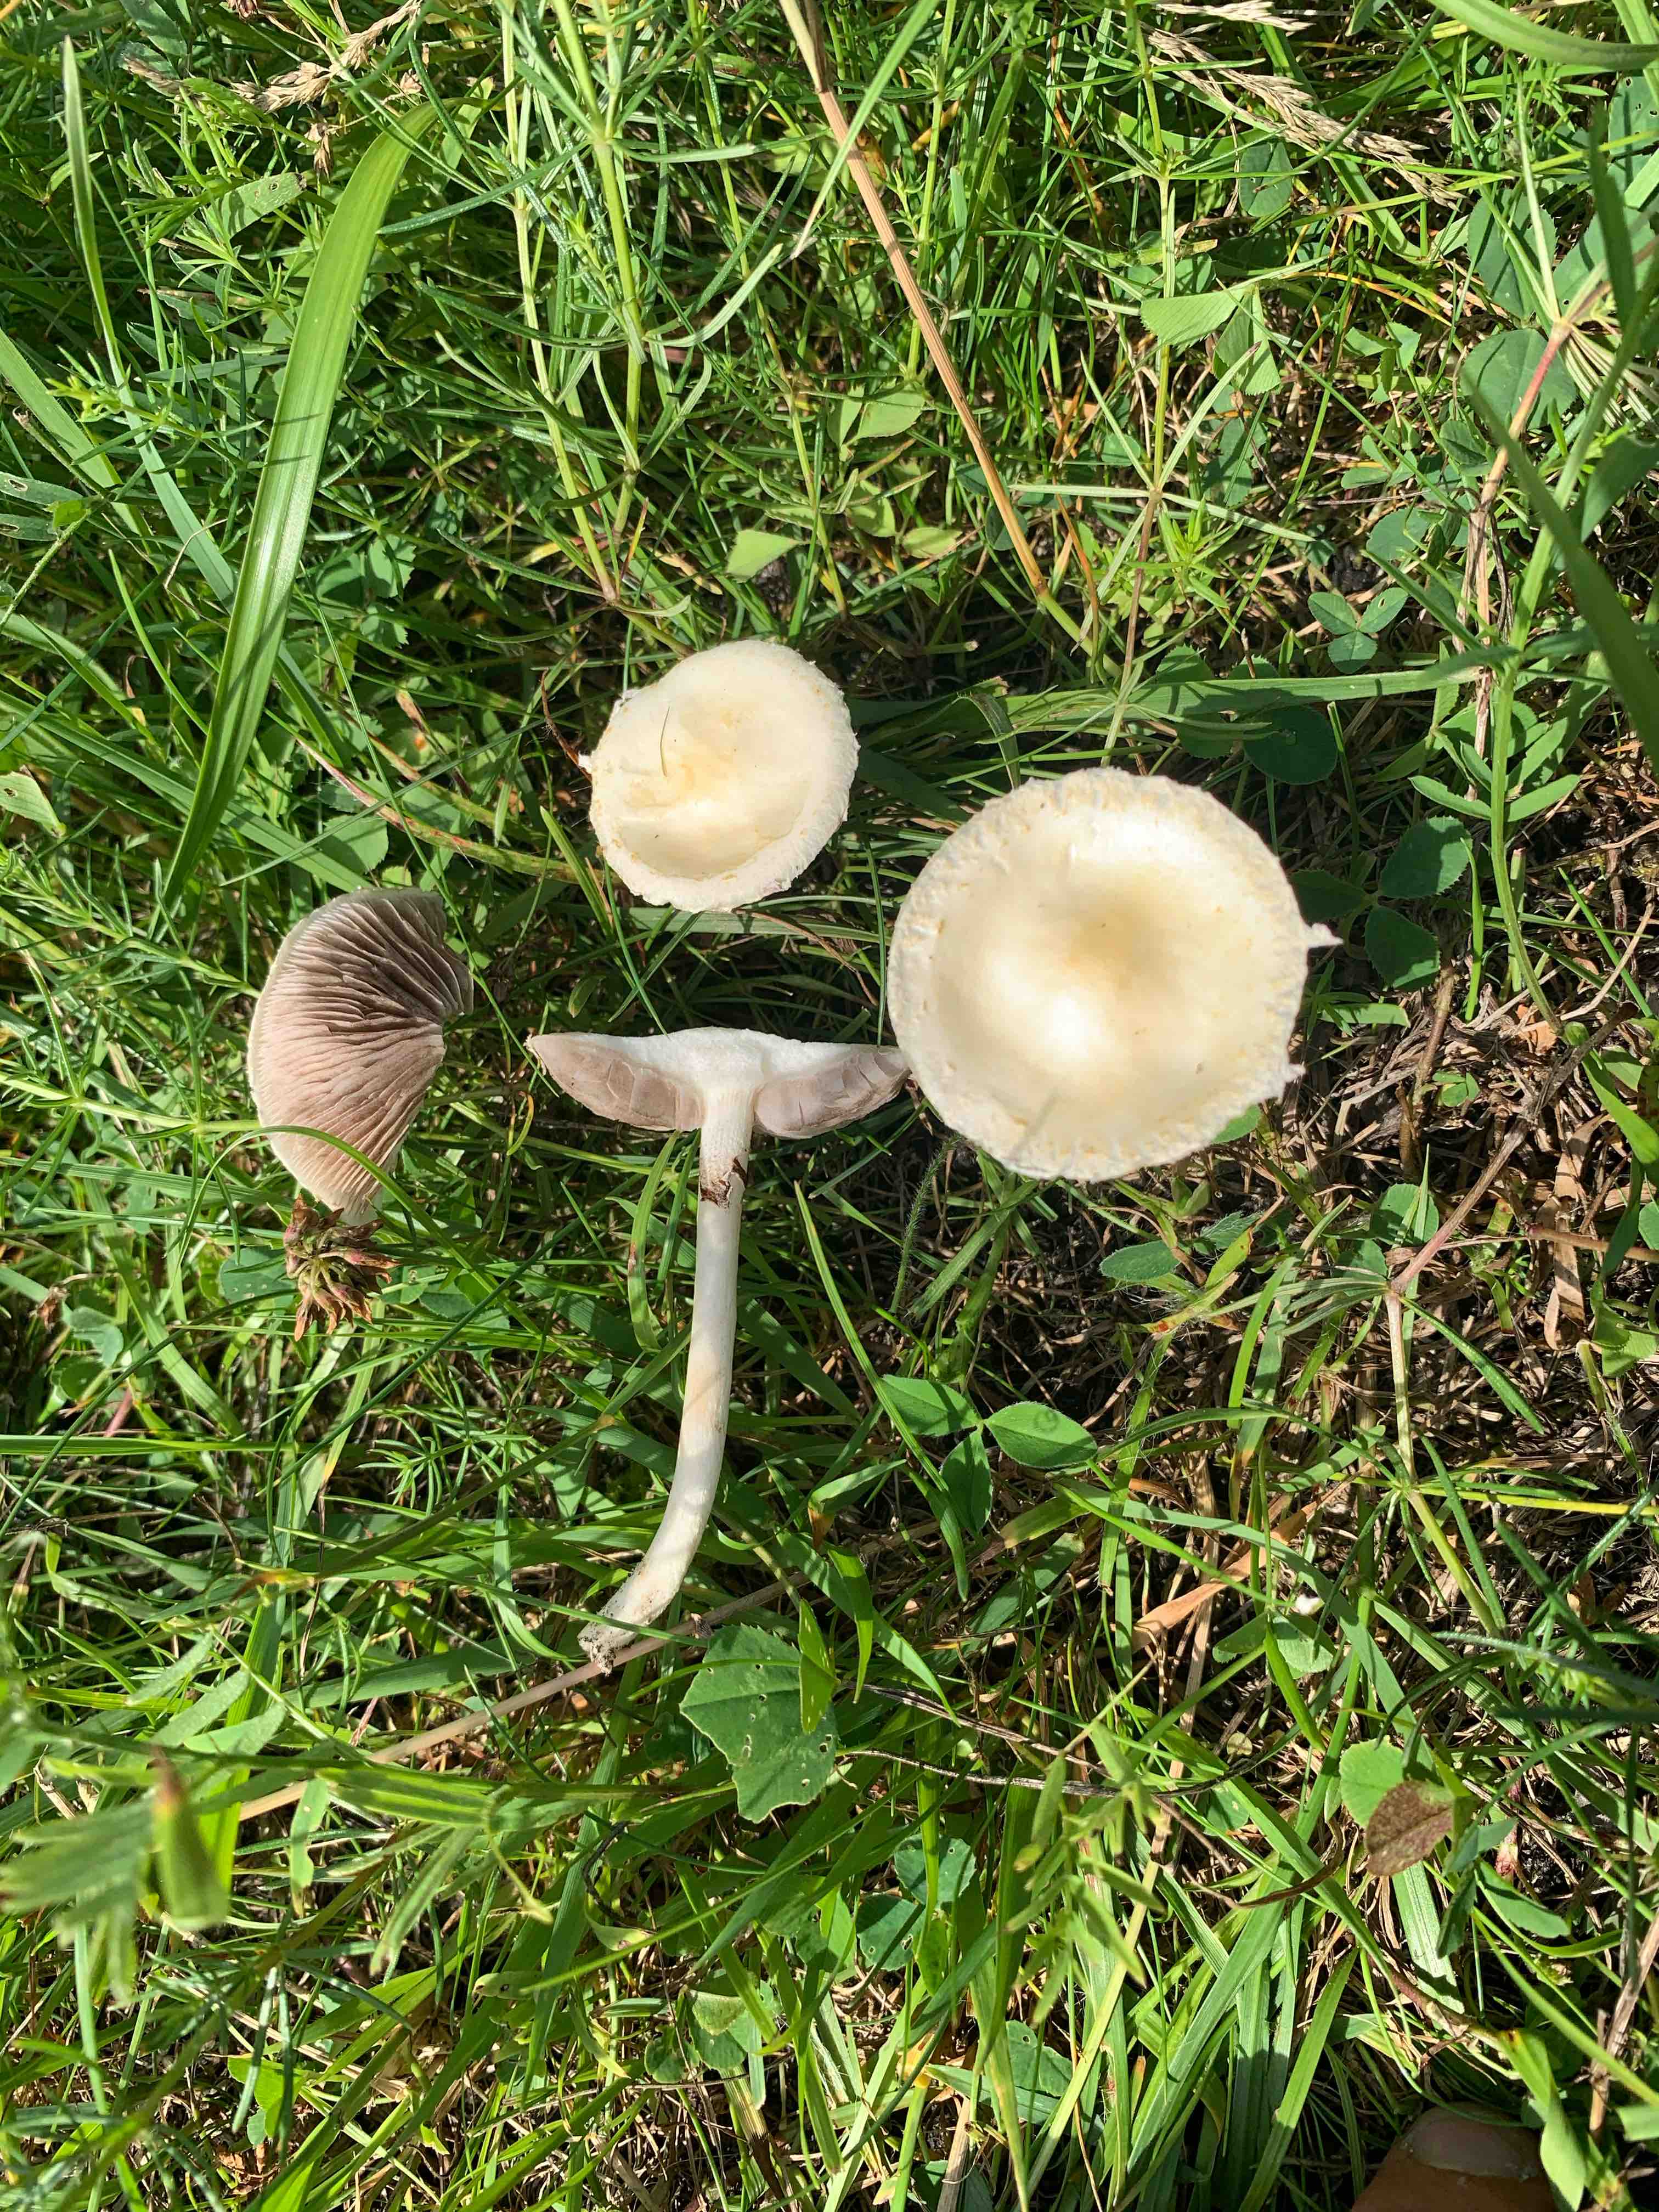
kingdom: Fungi
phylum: Basidiomycota
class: Agaricomycetes
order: Agaricales
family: Strophariaceae
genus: Agrocybe
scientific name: Agrocybe praecox
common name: tidlig agerhat
